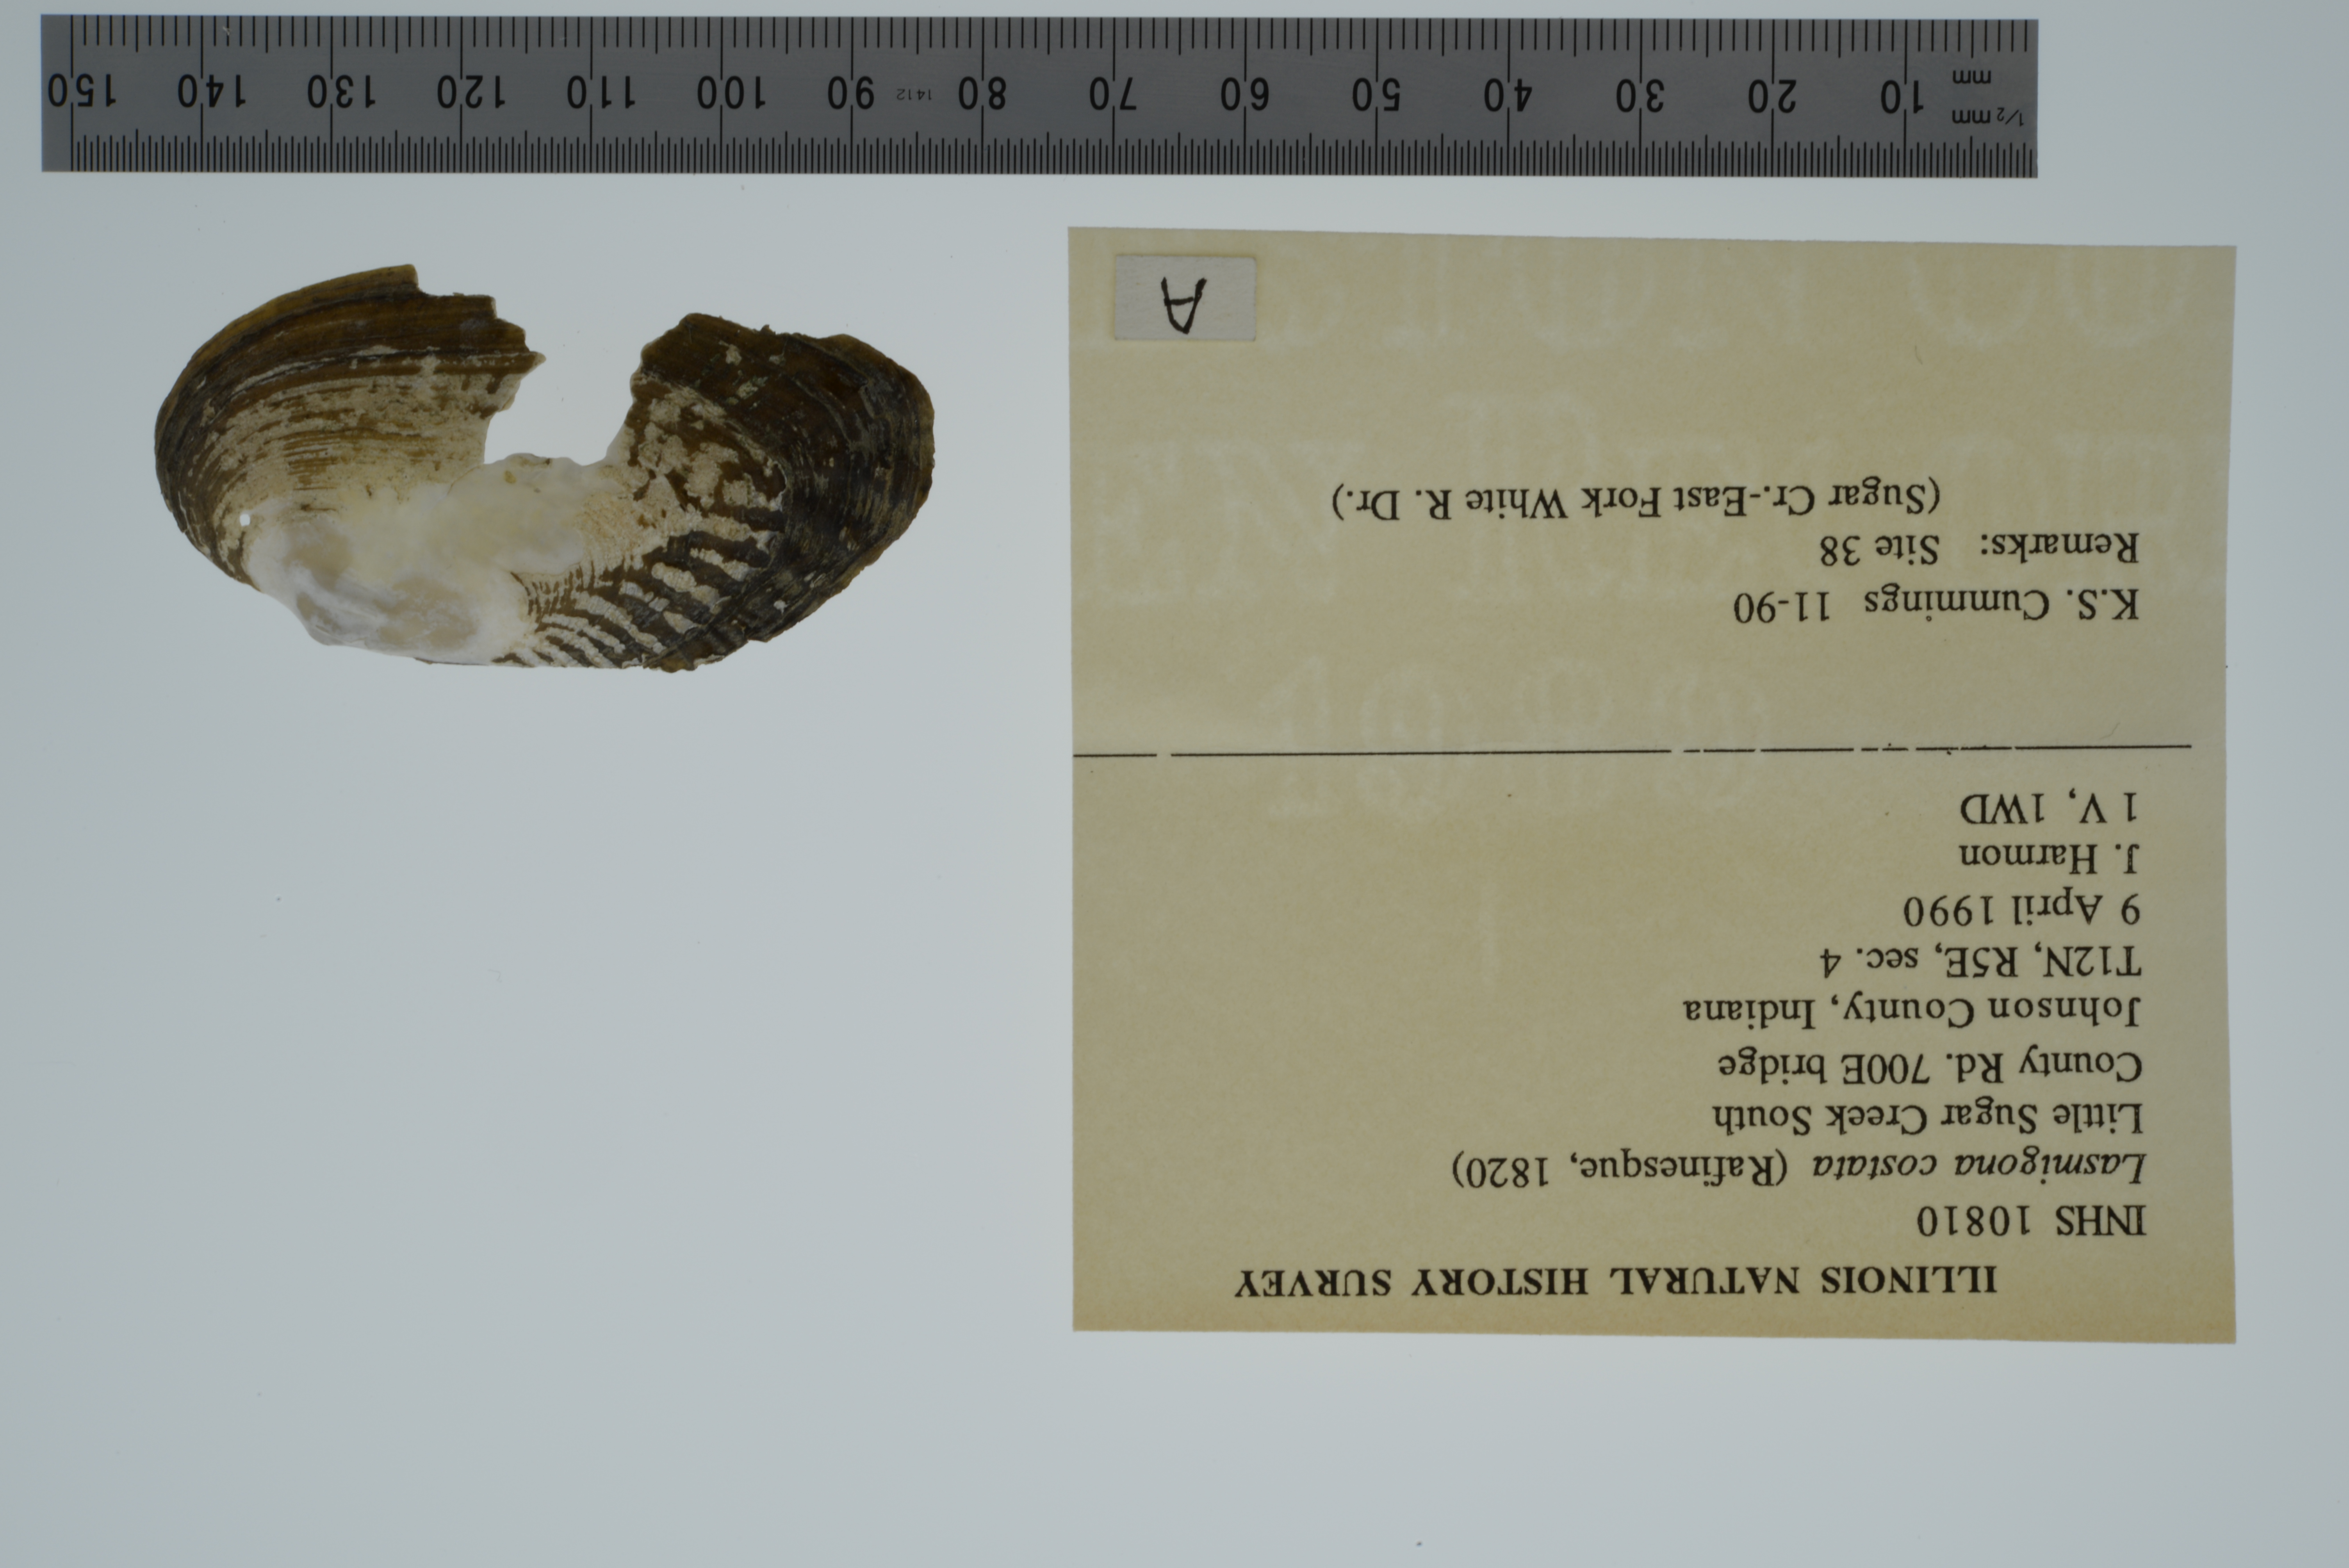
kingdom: Animalia
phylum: Mollusca
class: Bivalvia
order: Unionida
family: Unionidae
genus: Lasmigona
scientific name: Lasmigona costata
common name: Flutedshell
